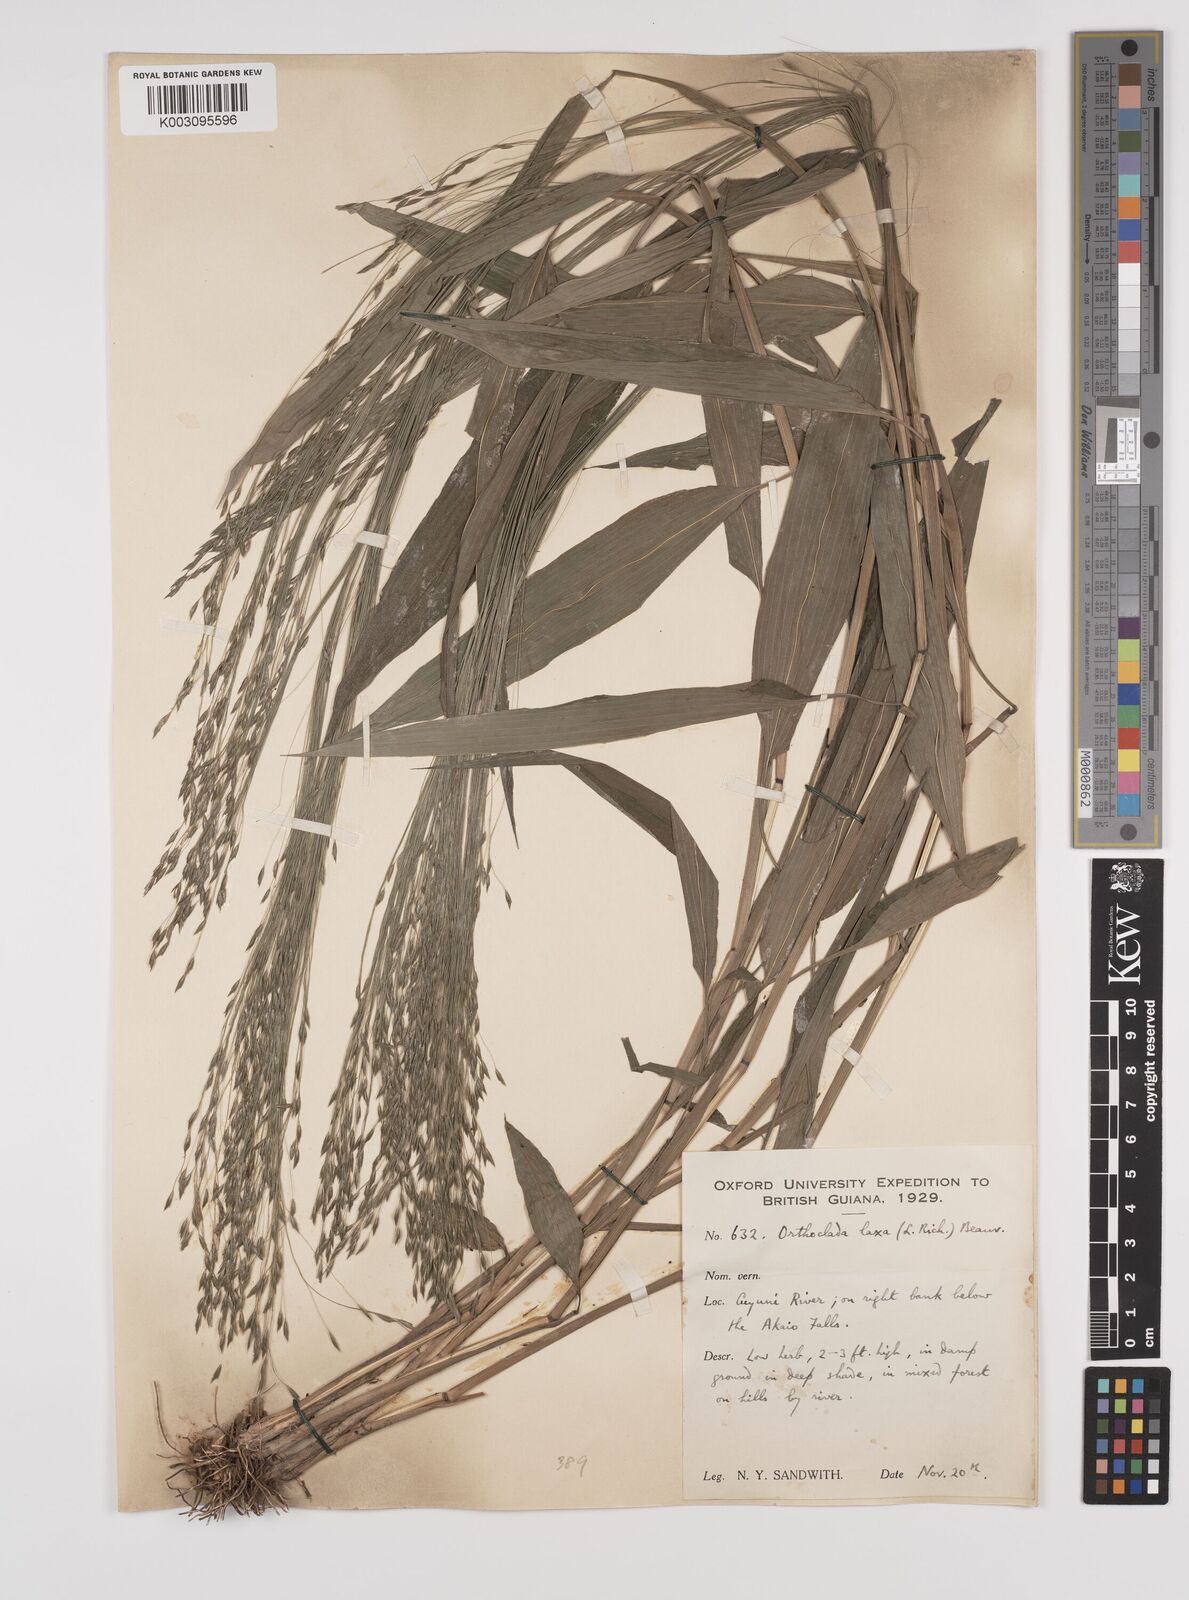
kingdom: Plantae
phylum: Tracheophyta
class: Liliopsida
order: Poales
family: Poaceae
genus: Orthoclada
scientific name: Orthoclada laxa
